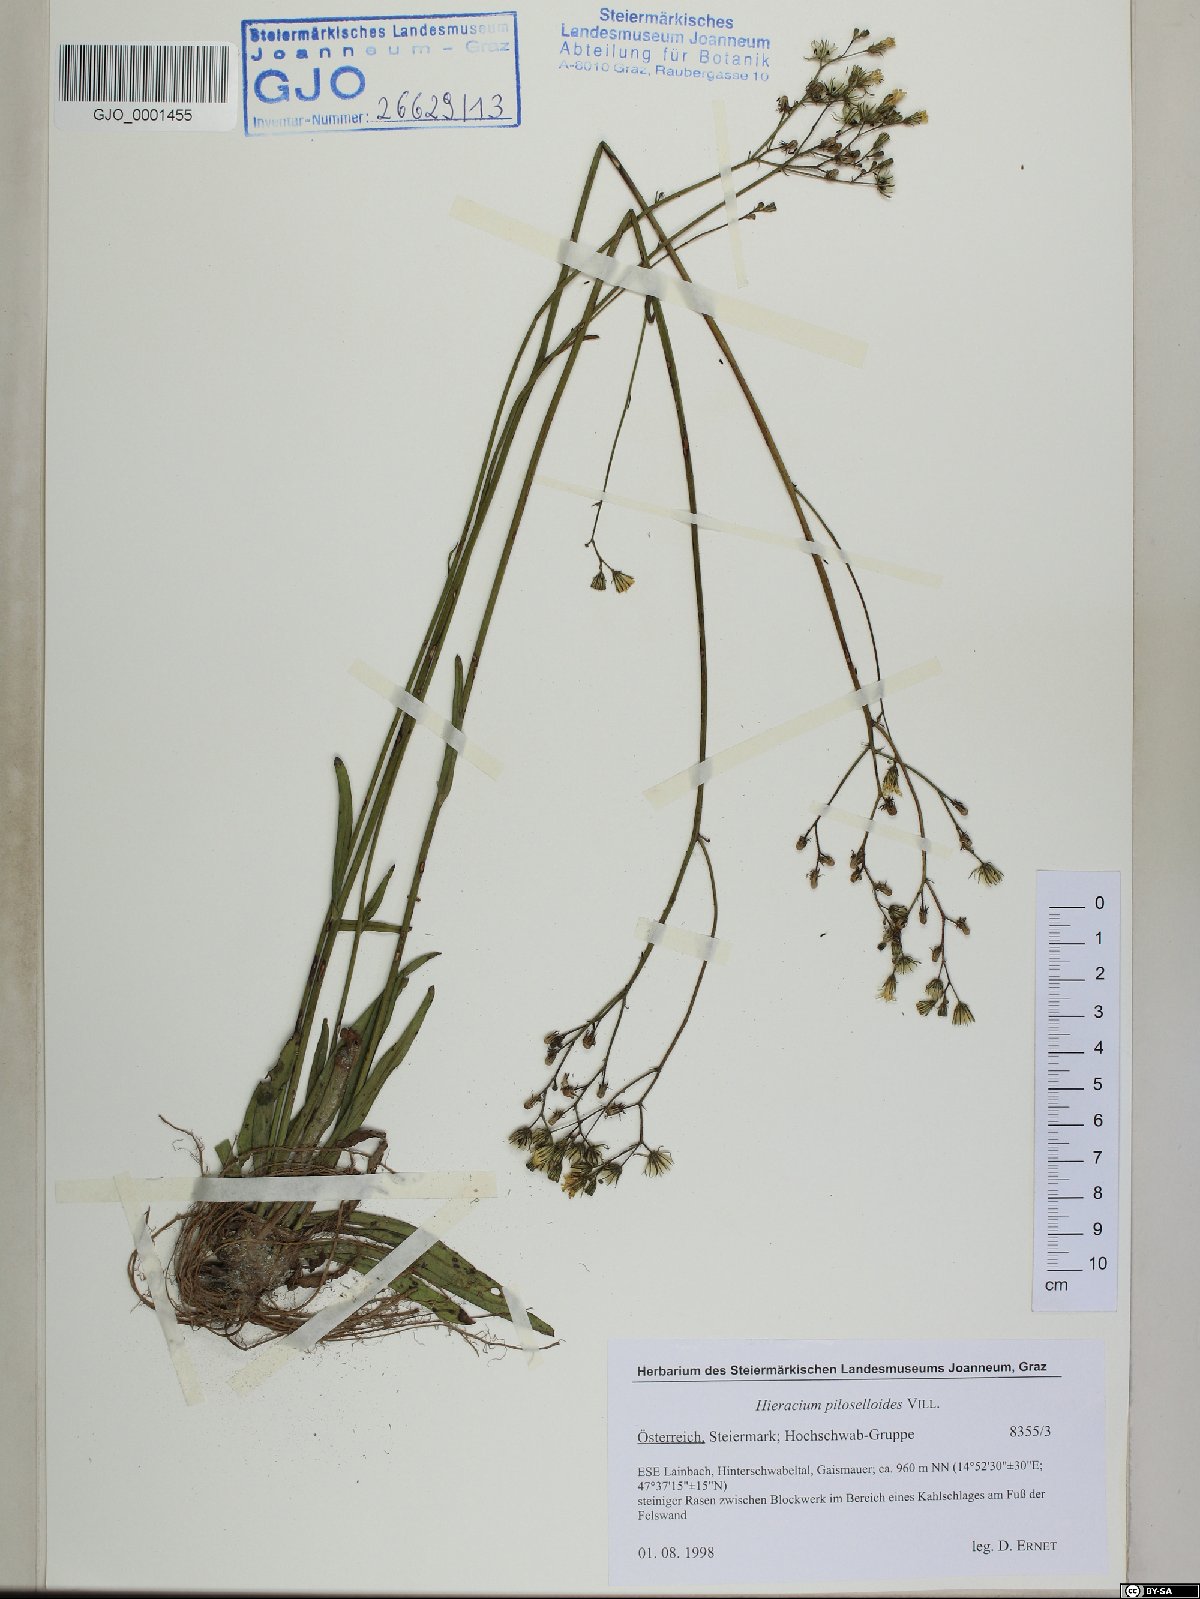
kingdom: Plantae
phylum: Tracheophyta
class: Magnoliopsida
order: Asterales
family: Asteraceae
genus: Pilosella
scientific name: Pilosella piloselloides
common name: Glaucous king-devil
